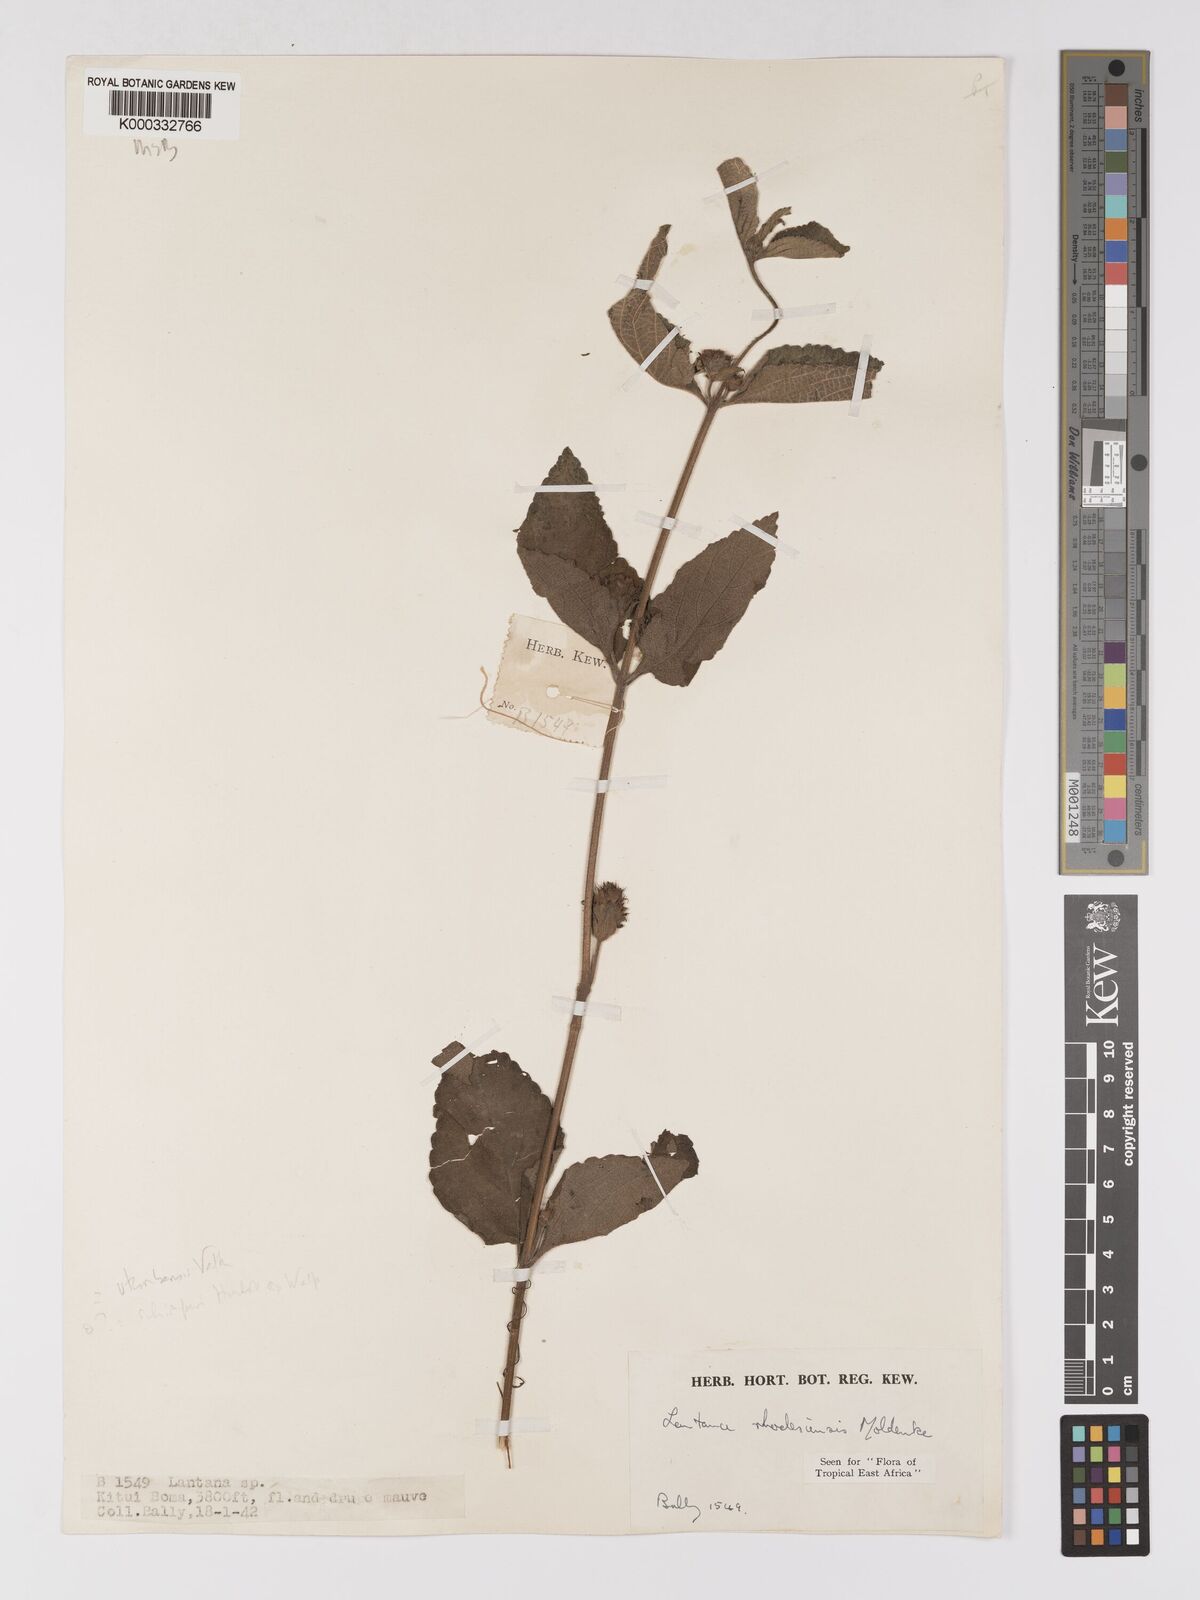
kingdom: Plantae
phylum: Tracheophyta
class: Magnoliopsida
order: Lamiales
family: Verbenaceae
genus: Lantana
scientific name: Lantana ukambensis
